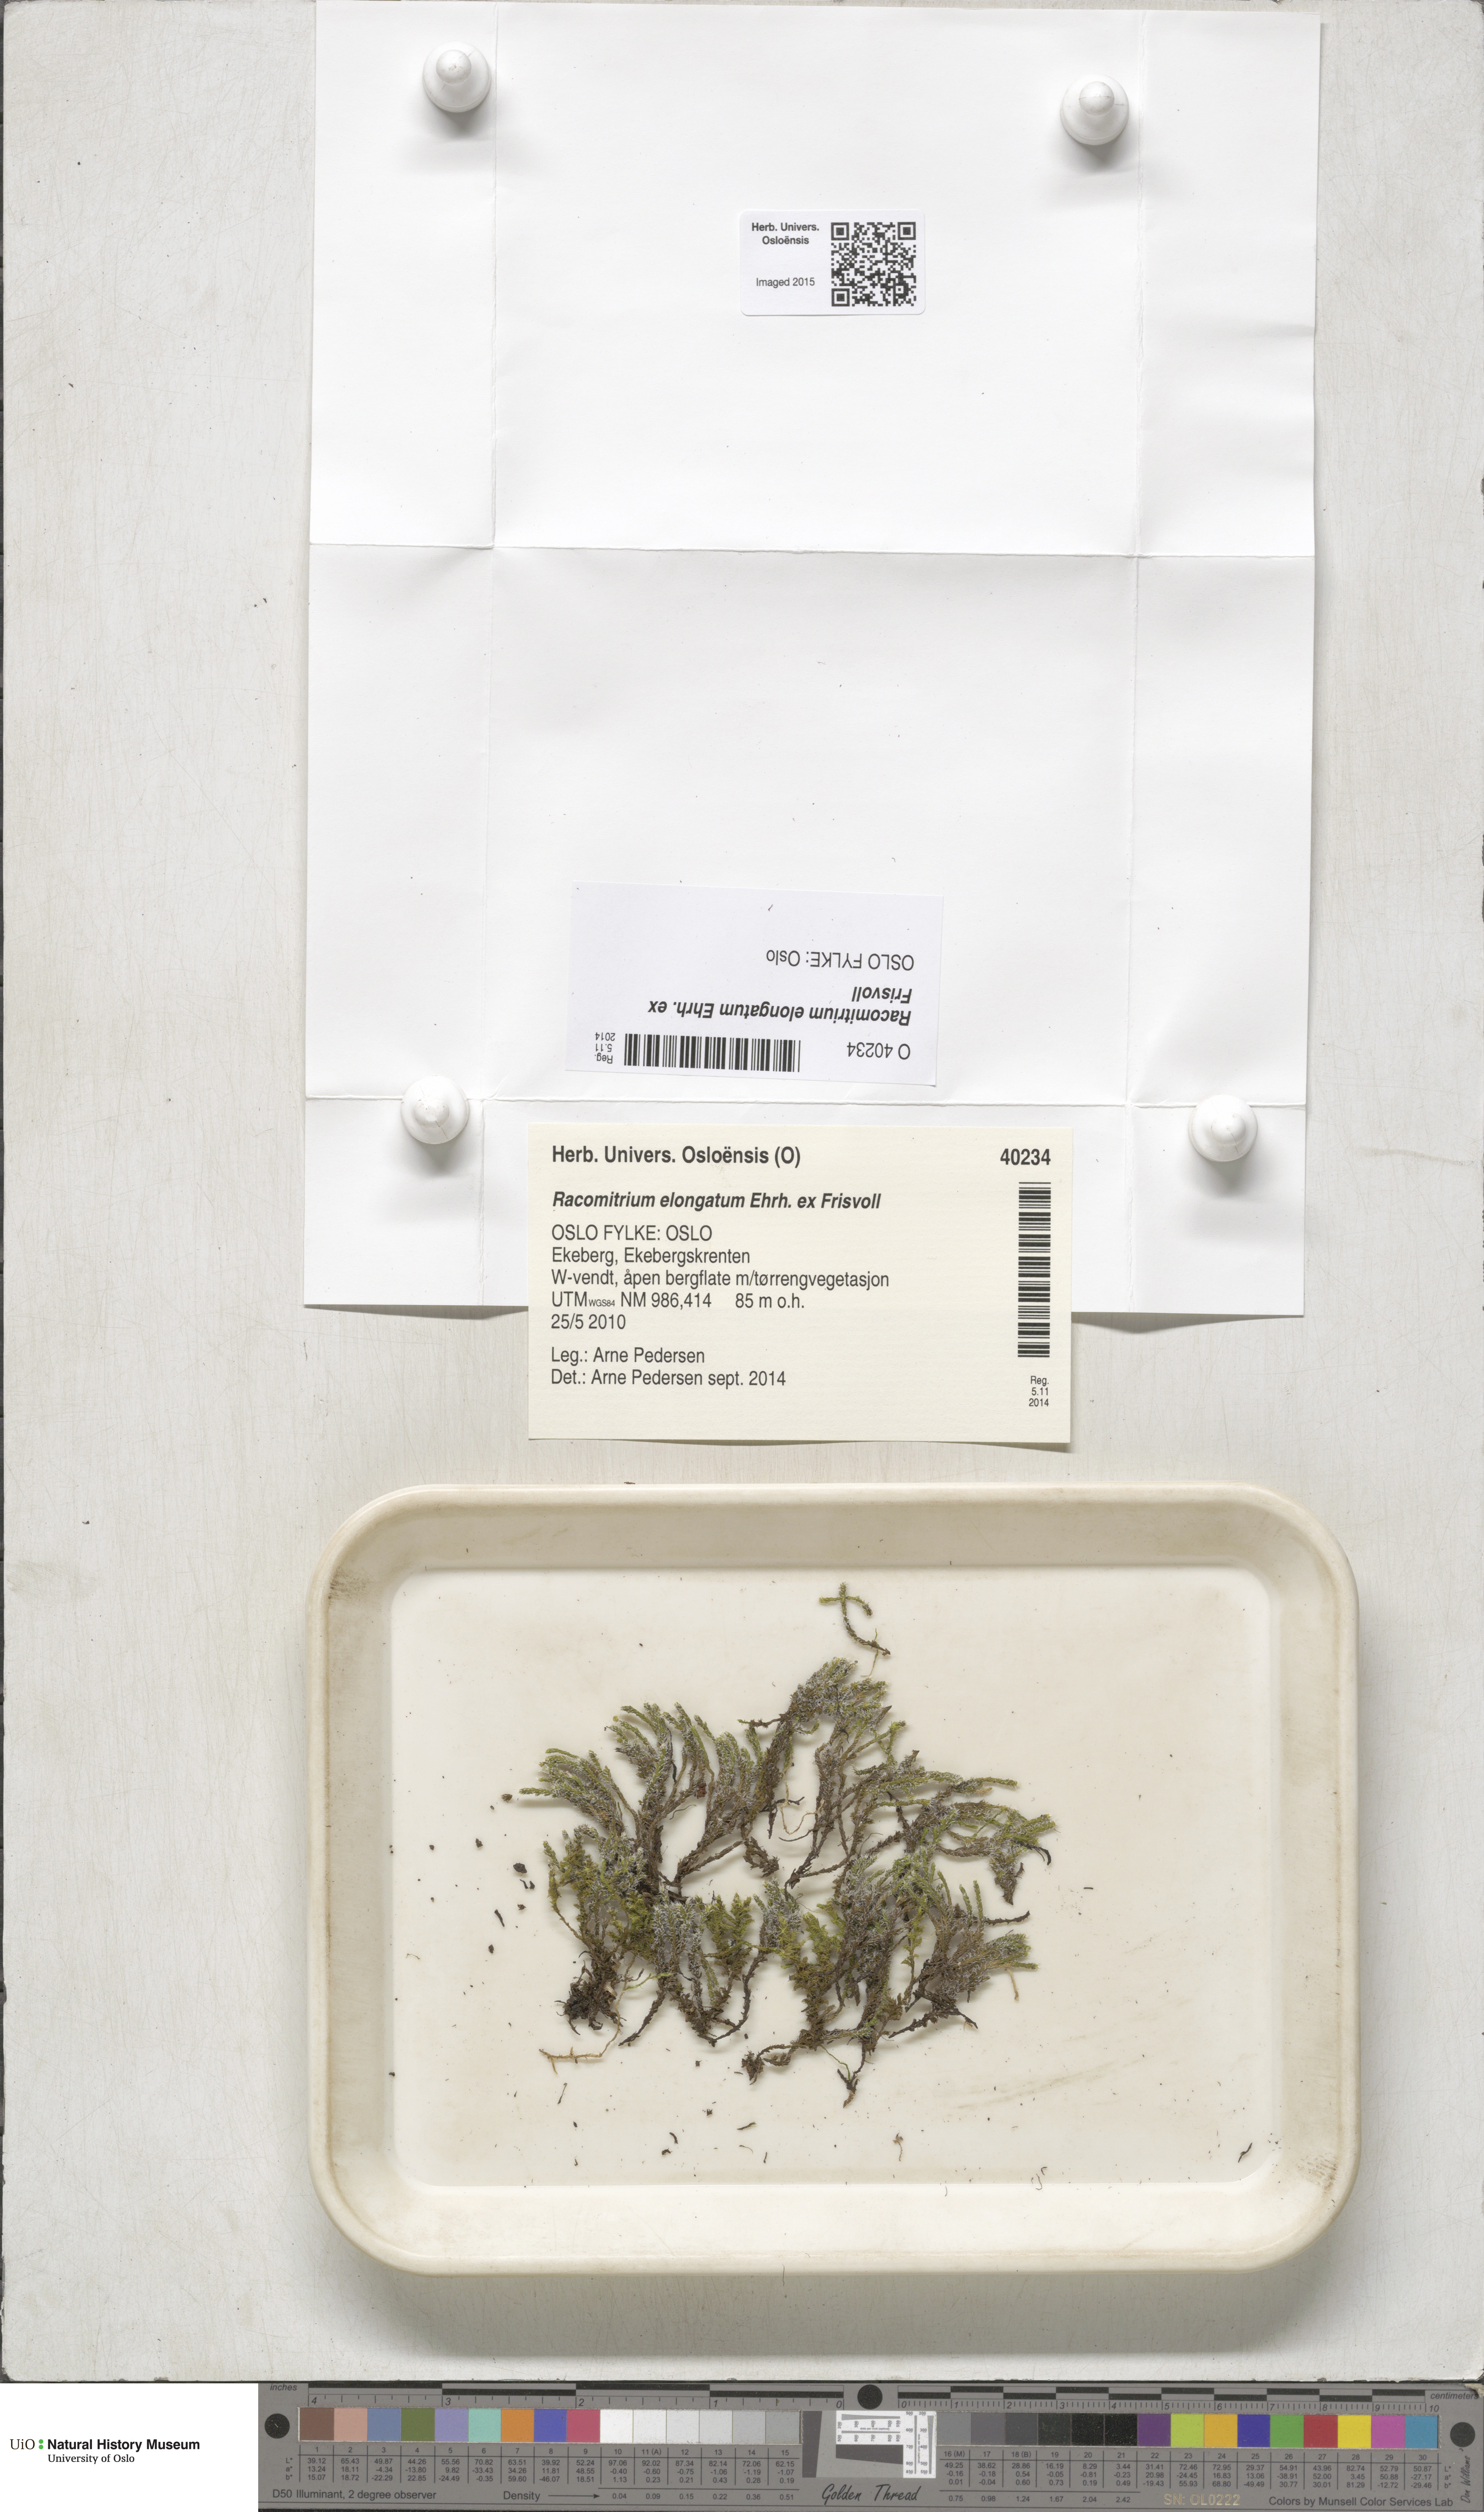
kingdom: Plantae
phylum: Bryophyta
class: Bryopsida
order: Grimmiales
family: Grimmiaceae
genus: Niphotrichum
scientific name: Niphotrichum elongatum
